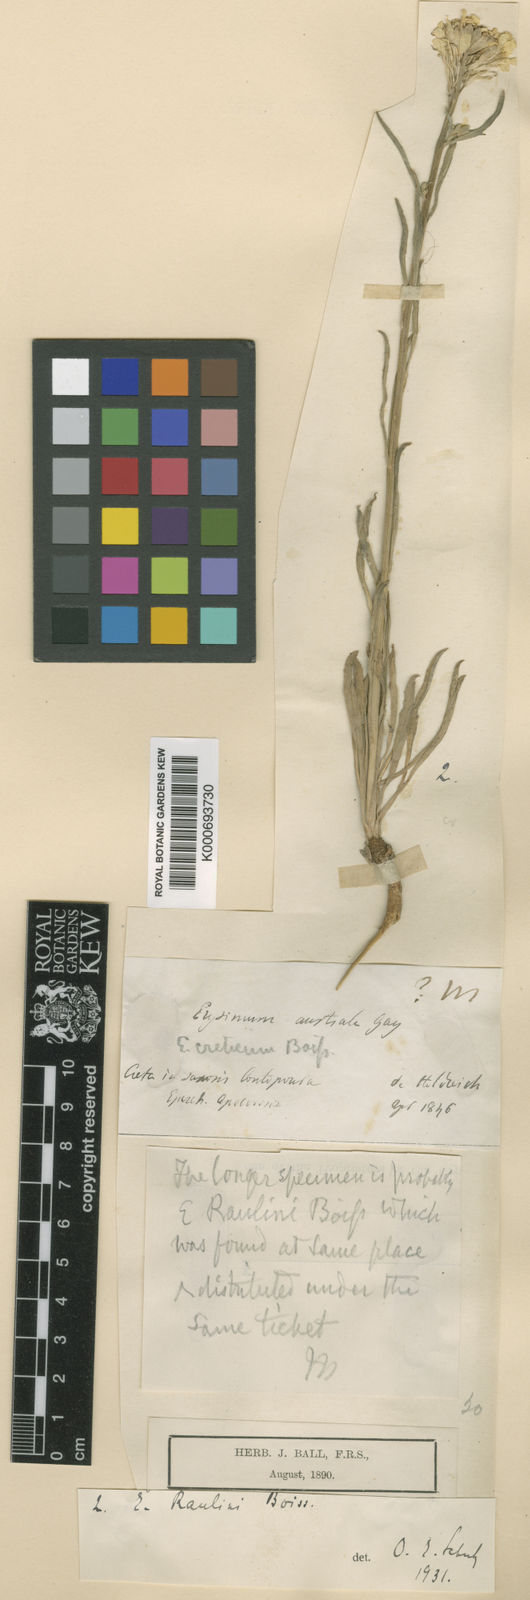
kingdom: Plantae
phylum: Tracheophyta
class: Magnoliopsida
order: Brassicales
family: Brassicaceae
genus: Erysimum
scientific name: Erysimum raulinii
